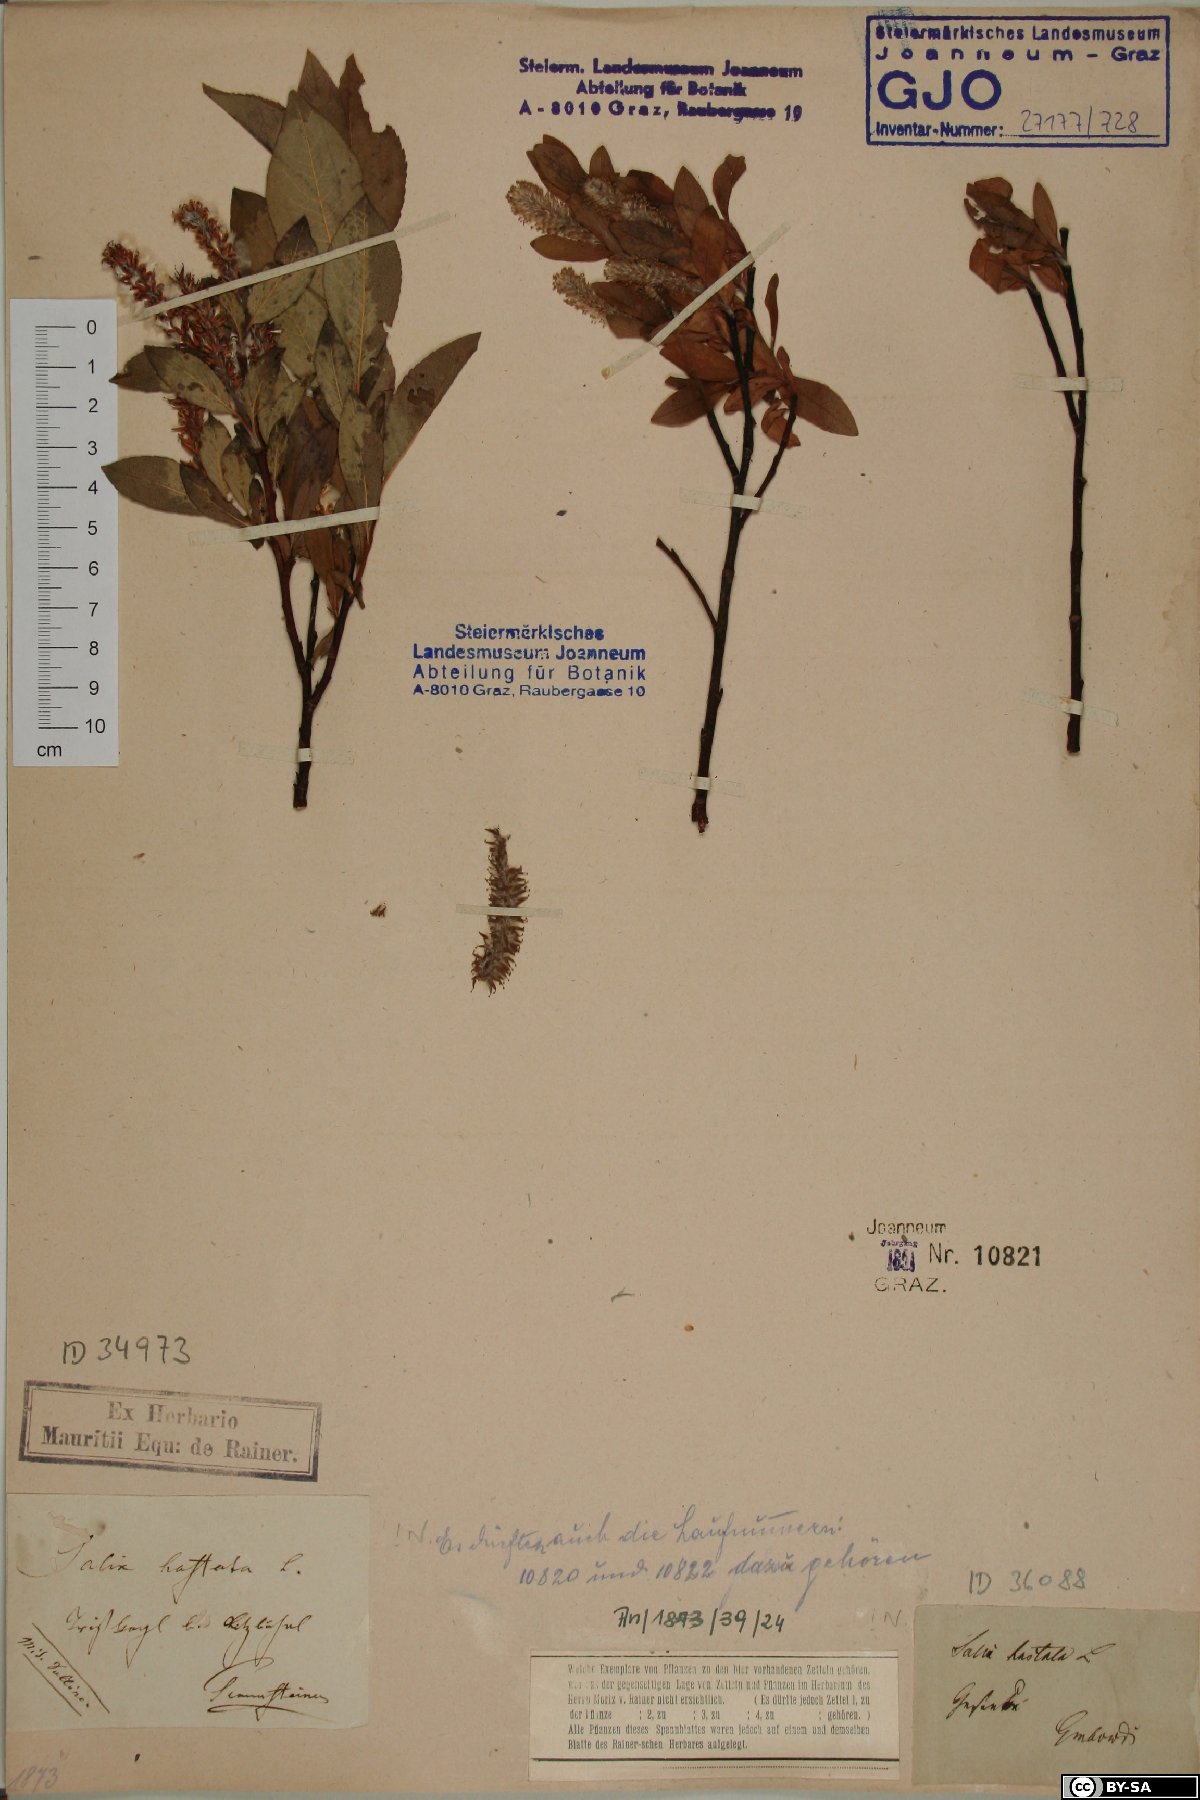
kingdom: Plantae
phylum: Tracheophyta
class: Magnoliopsida
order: Malpighiales
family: Salicaceae
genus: Salix
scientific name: Salix hastata
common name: Halberd willow
